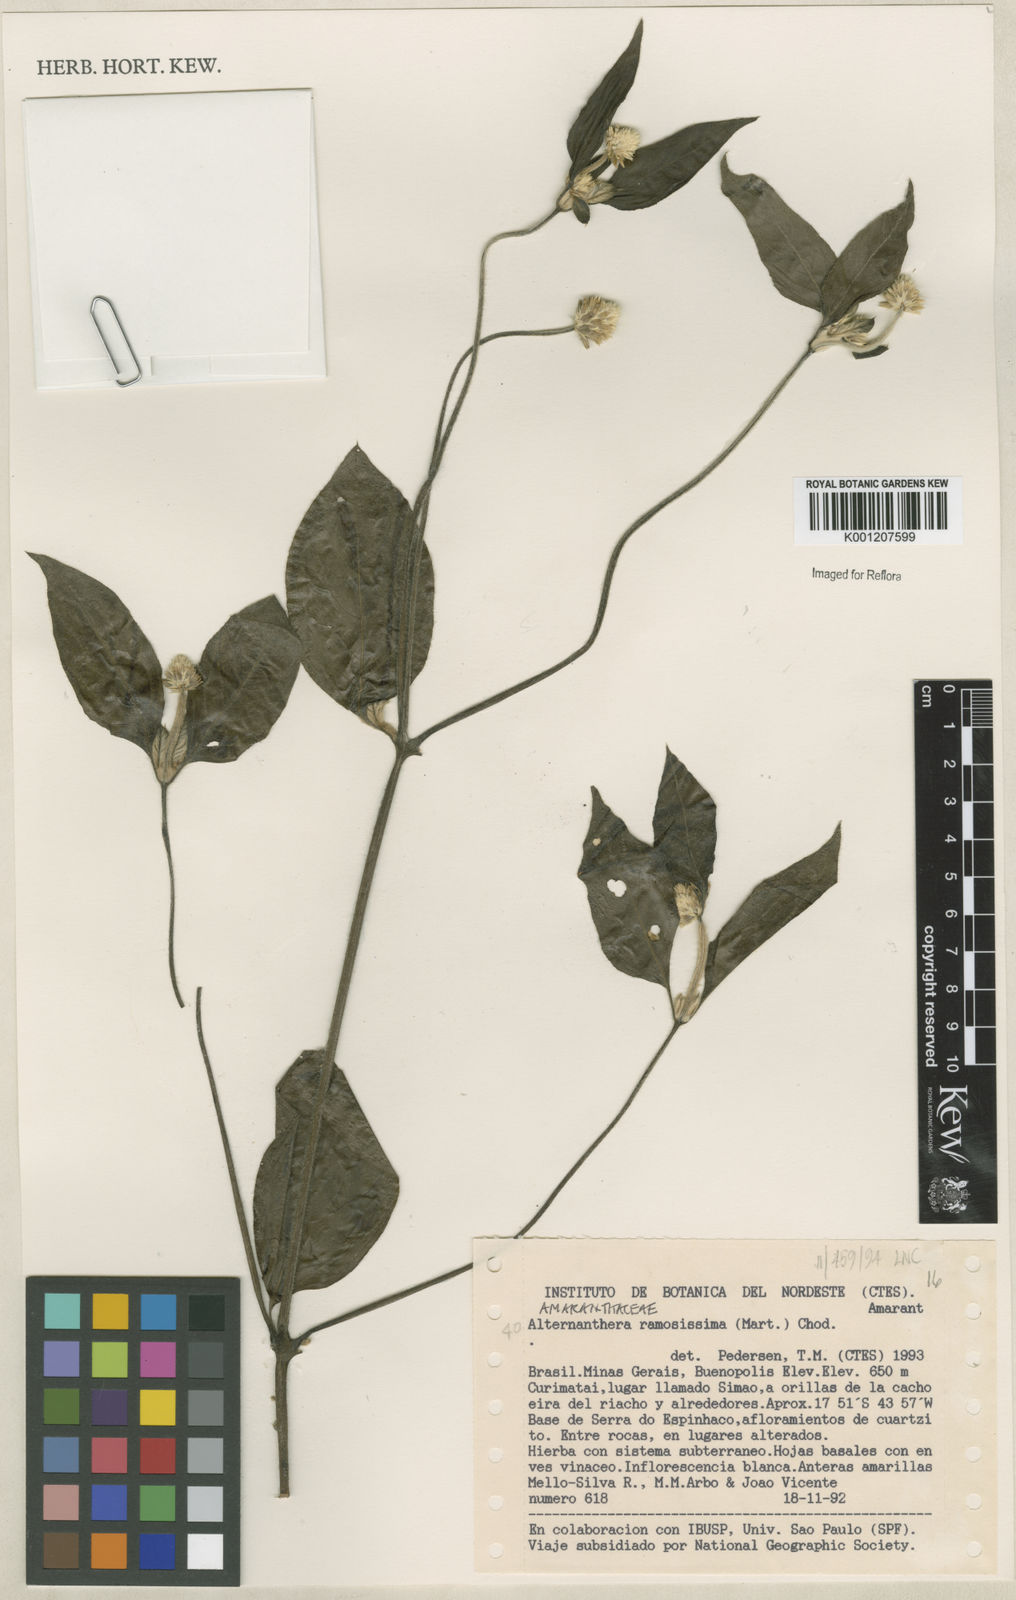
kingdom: Plantae
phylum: Tracheophyta
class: Magnoliopsida
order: Caryophyllales
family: Amaranthaceae
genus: Alternanthera
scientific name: Alternanthera ramosissima
